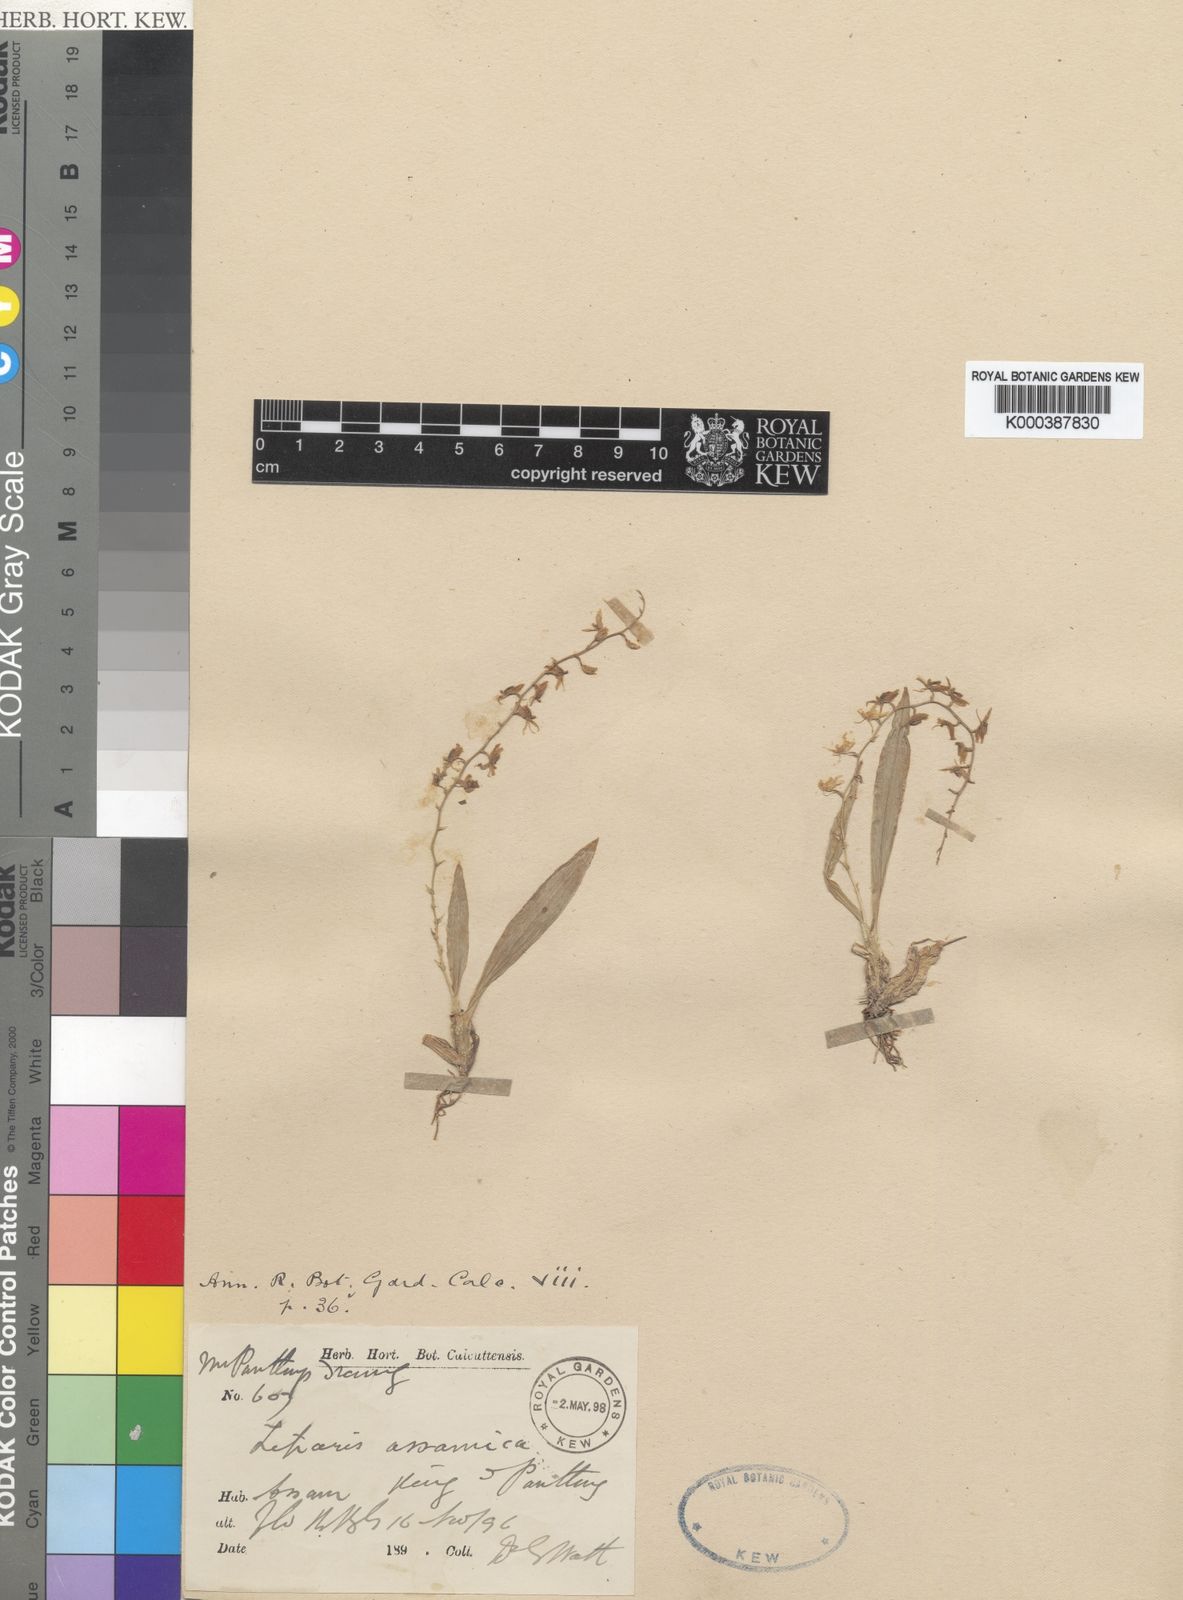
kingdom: Plantae
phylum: Tracheophyta
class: Liliopsida
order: Asparagales
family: Orchidaceae
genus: Liparis
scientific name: Liparis assamica
